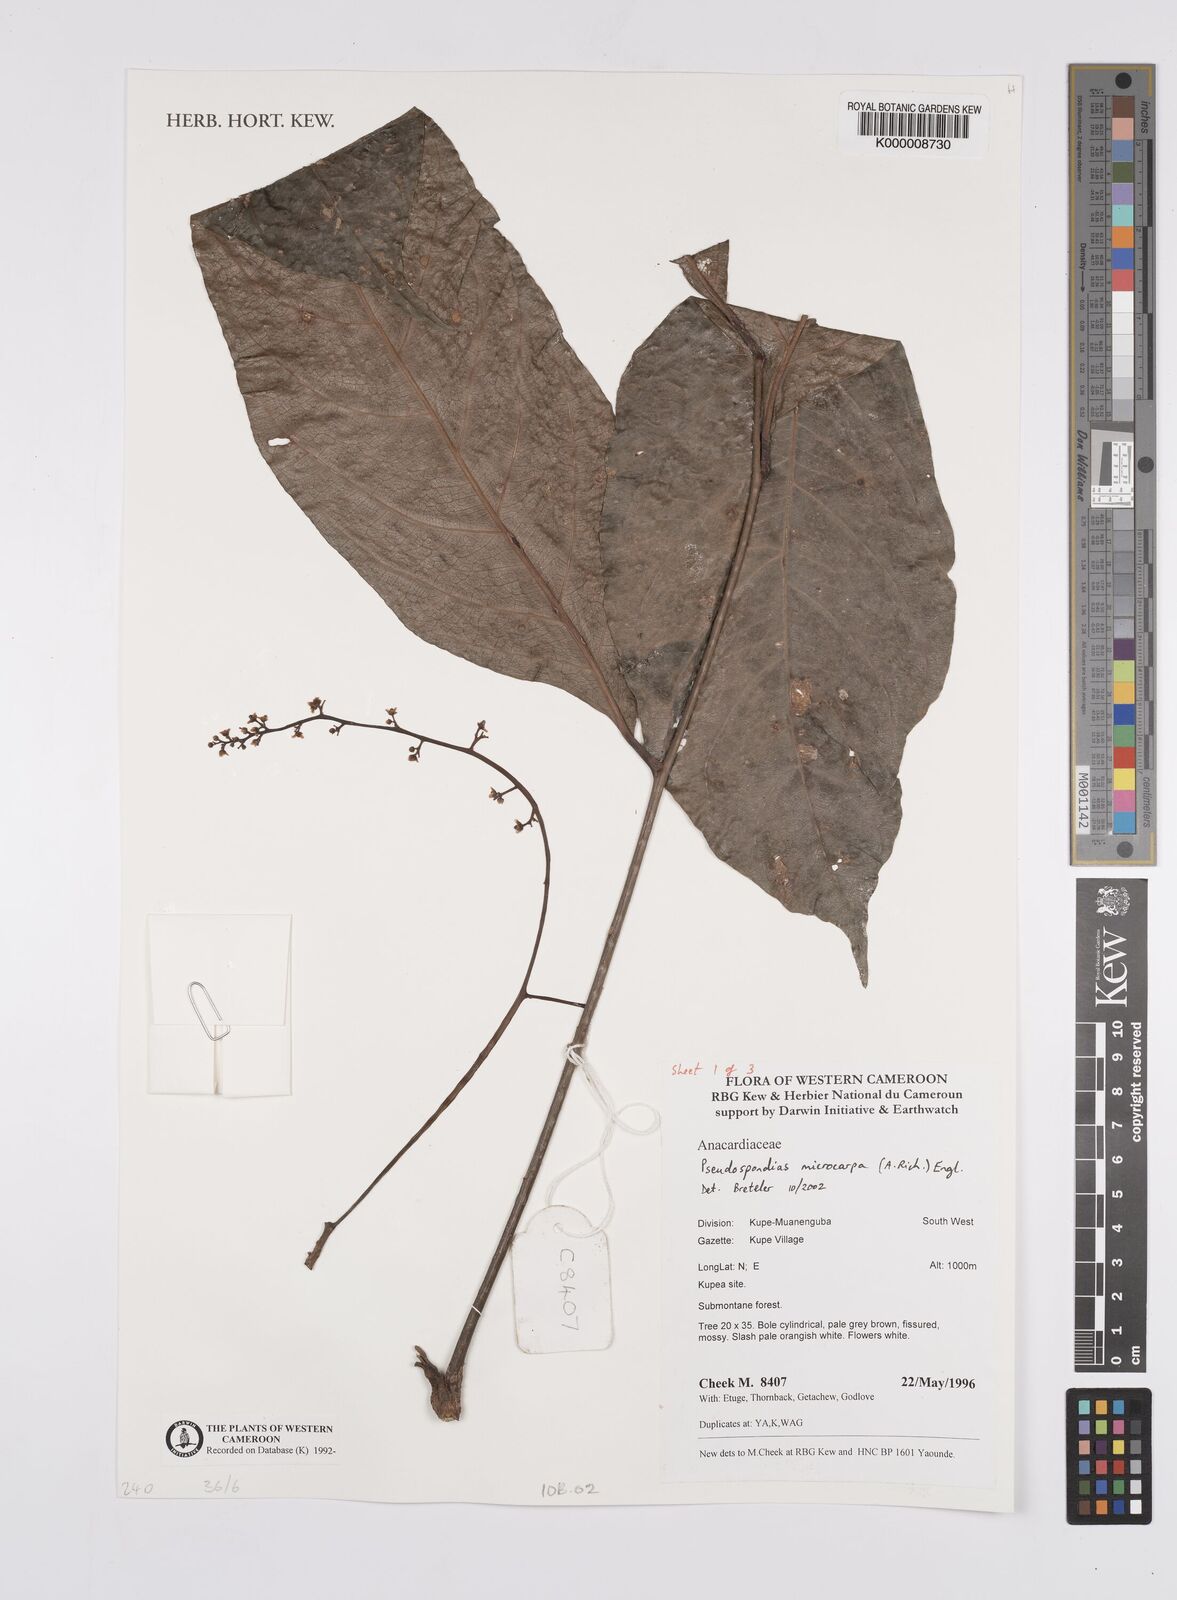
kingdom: Plantae
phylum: Tracheophyta
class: Magnoliopsida
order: Sapindales
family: Anacardiaceae
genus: Pseudospondias
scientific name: Pseudospondias microcarpa
